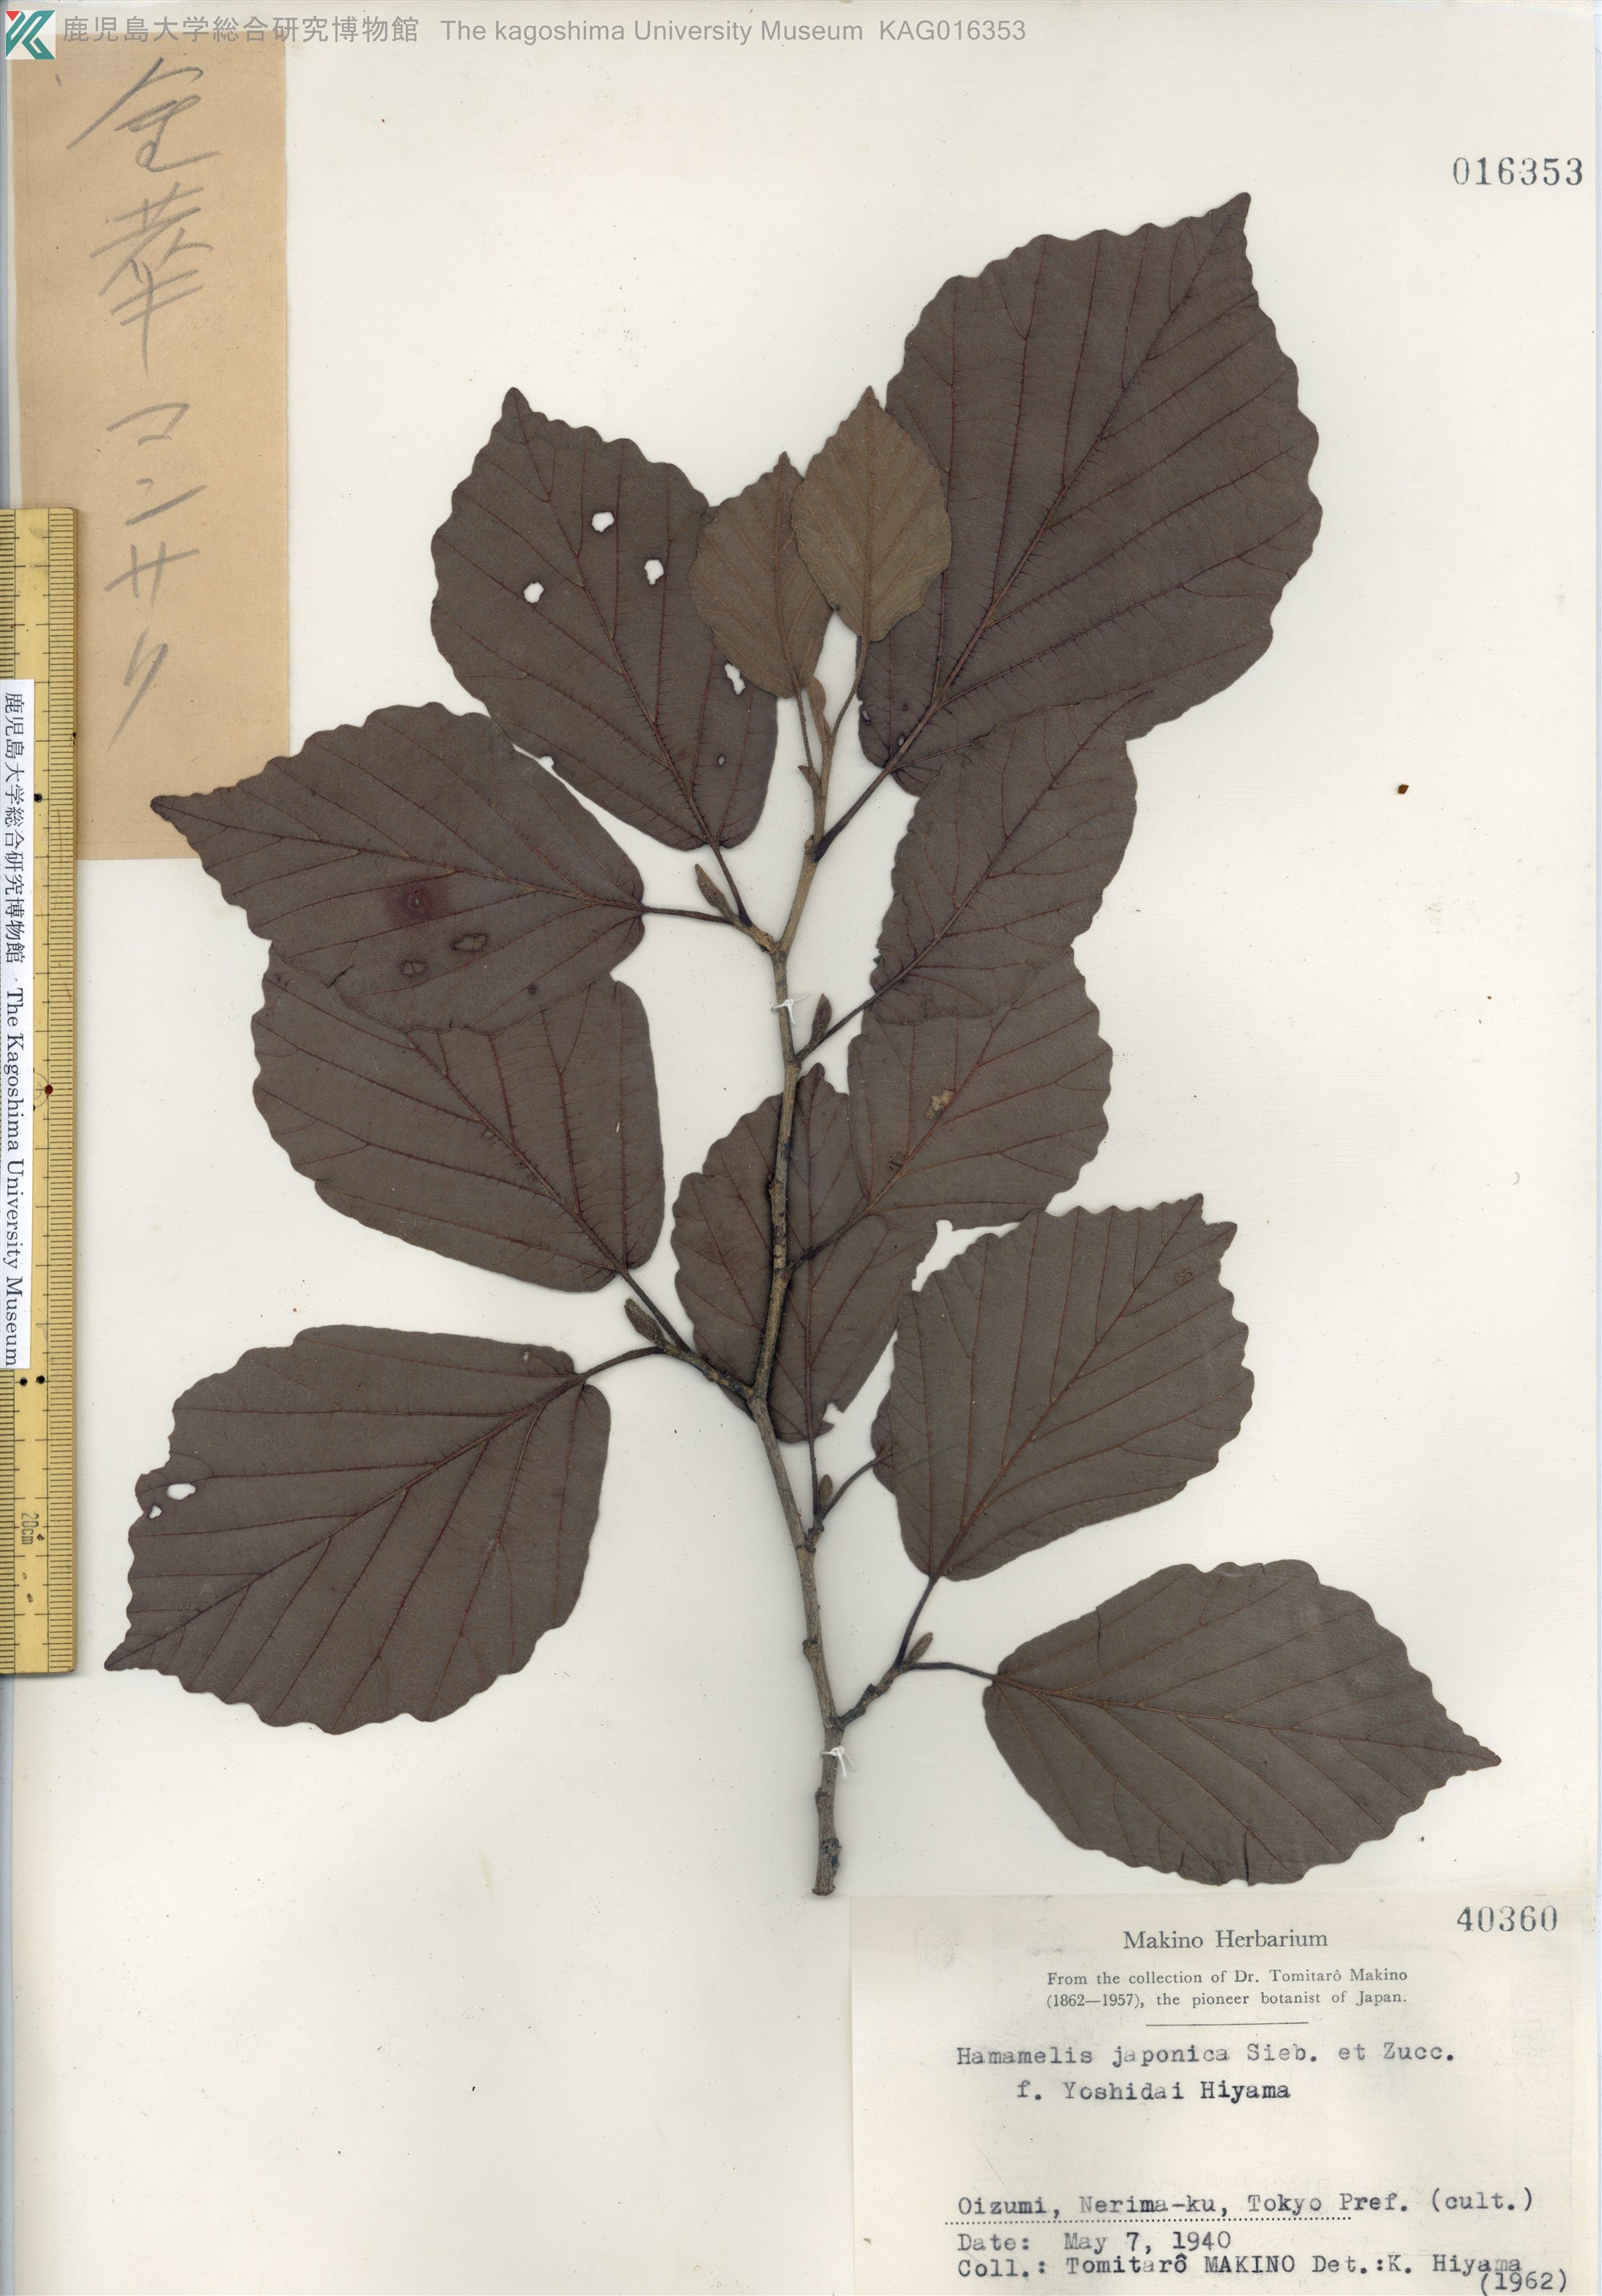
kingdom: Plantae
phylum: Tracheophyta
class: Magnoliopsida
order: Saxifragales
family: Hamamelidaceae
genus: Hamamelis
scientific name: Hamamelis
